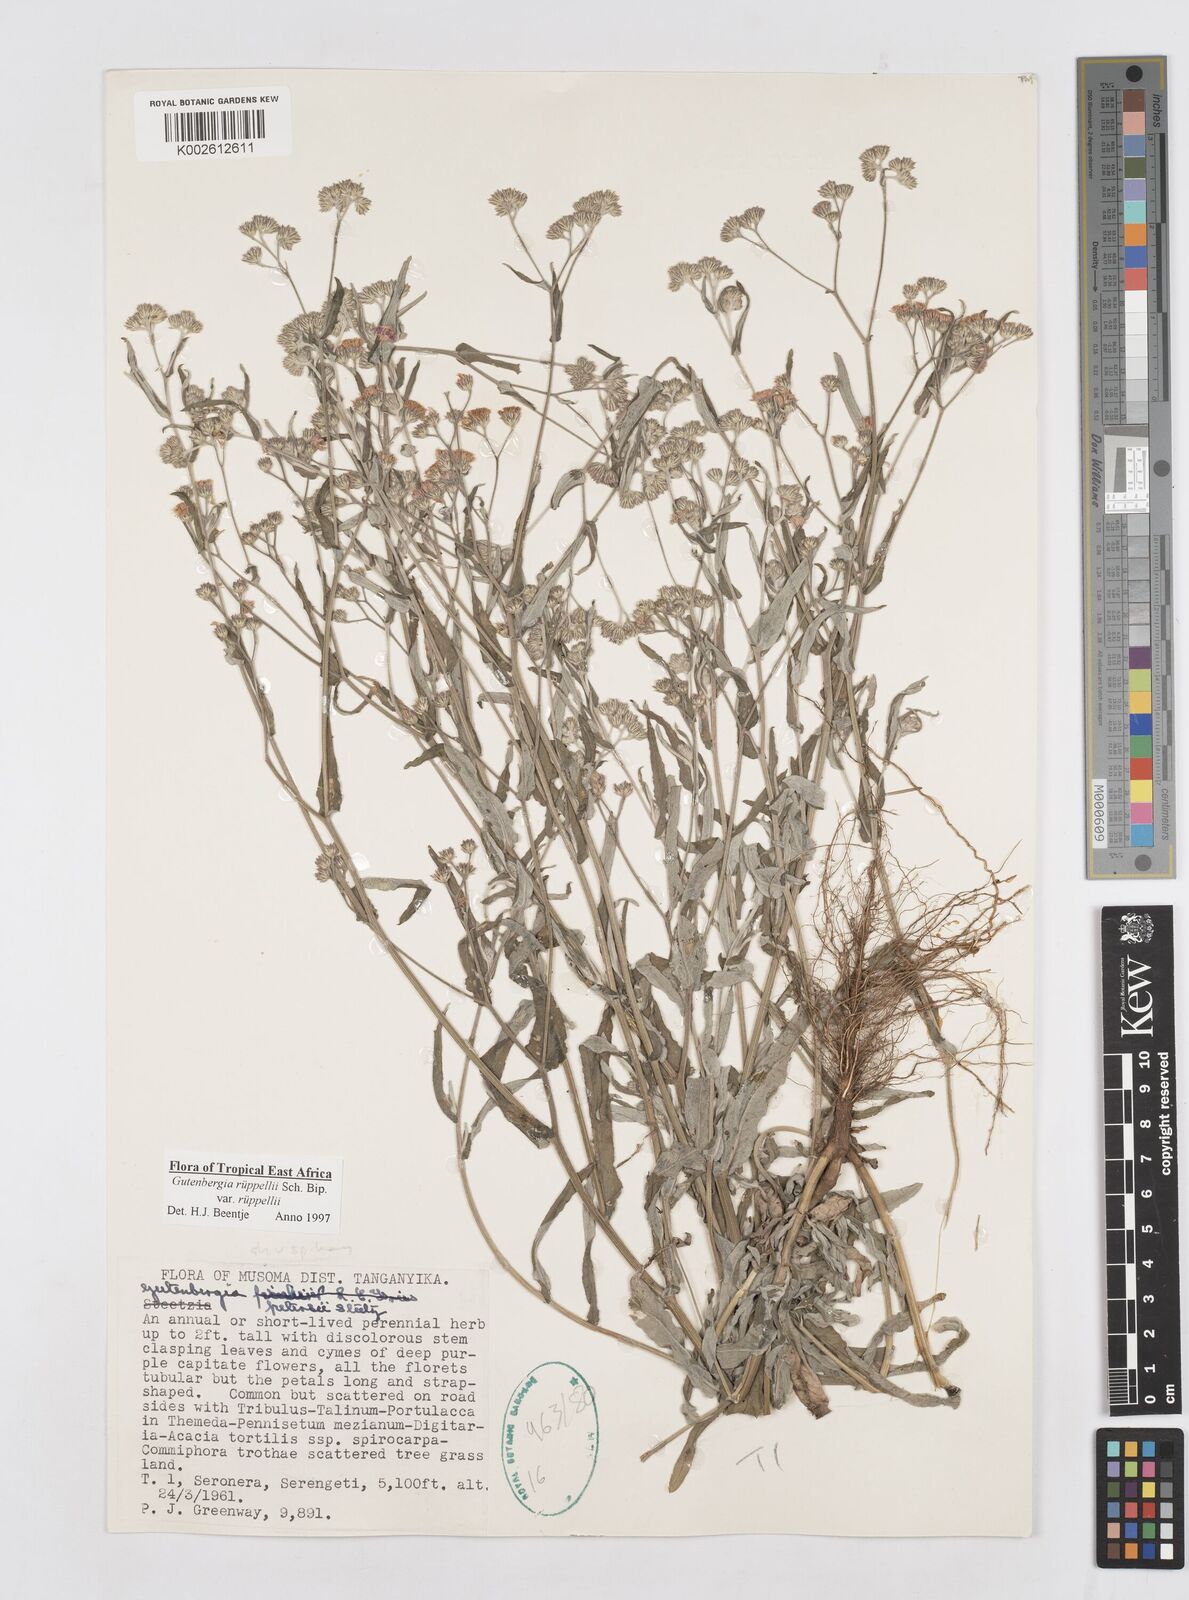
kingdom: Plantae
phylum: Tracheophyta
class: Magnoliopsida
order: Asterales
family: Asteraceae
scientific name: Asteraceae
